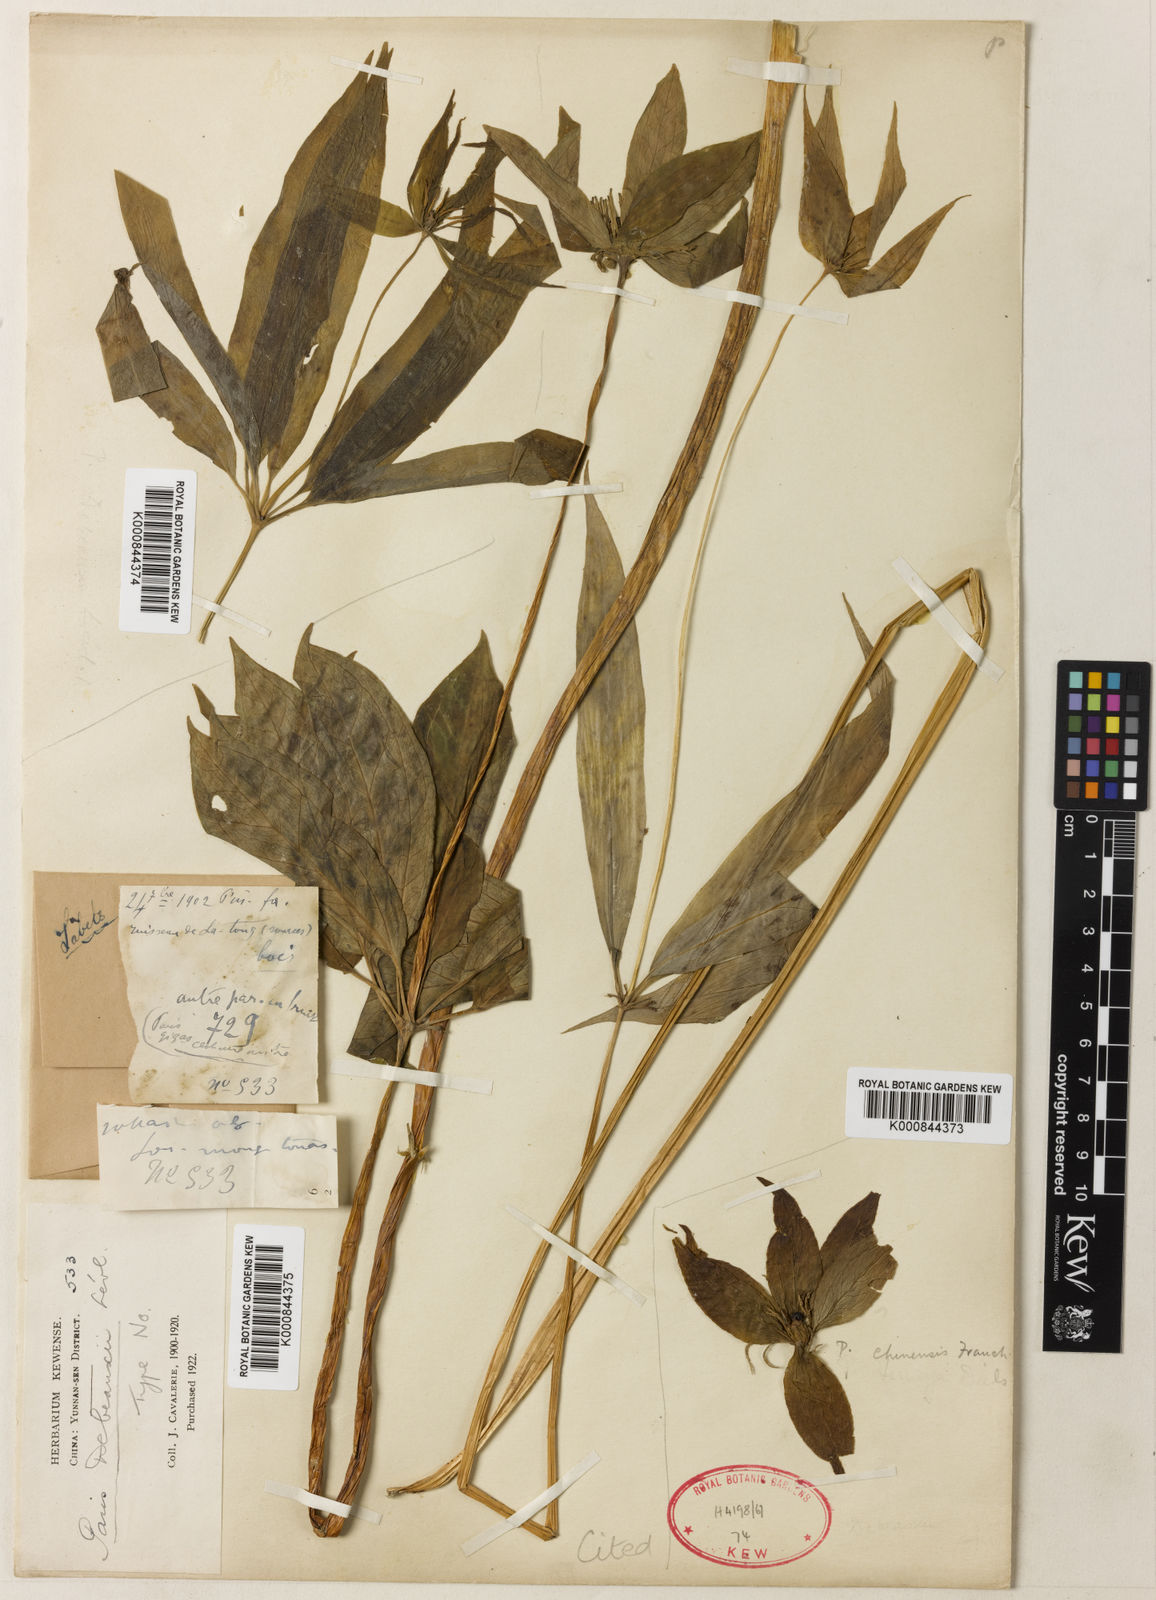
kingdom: Plantae
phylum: Tracheophyta
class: Liliopsida
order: Liliales
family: Melanthiaceae
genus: Paris
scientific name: Paris polyphylla
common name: Love apple
